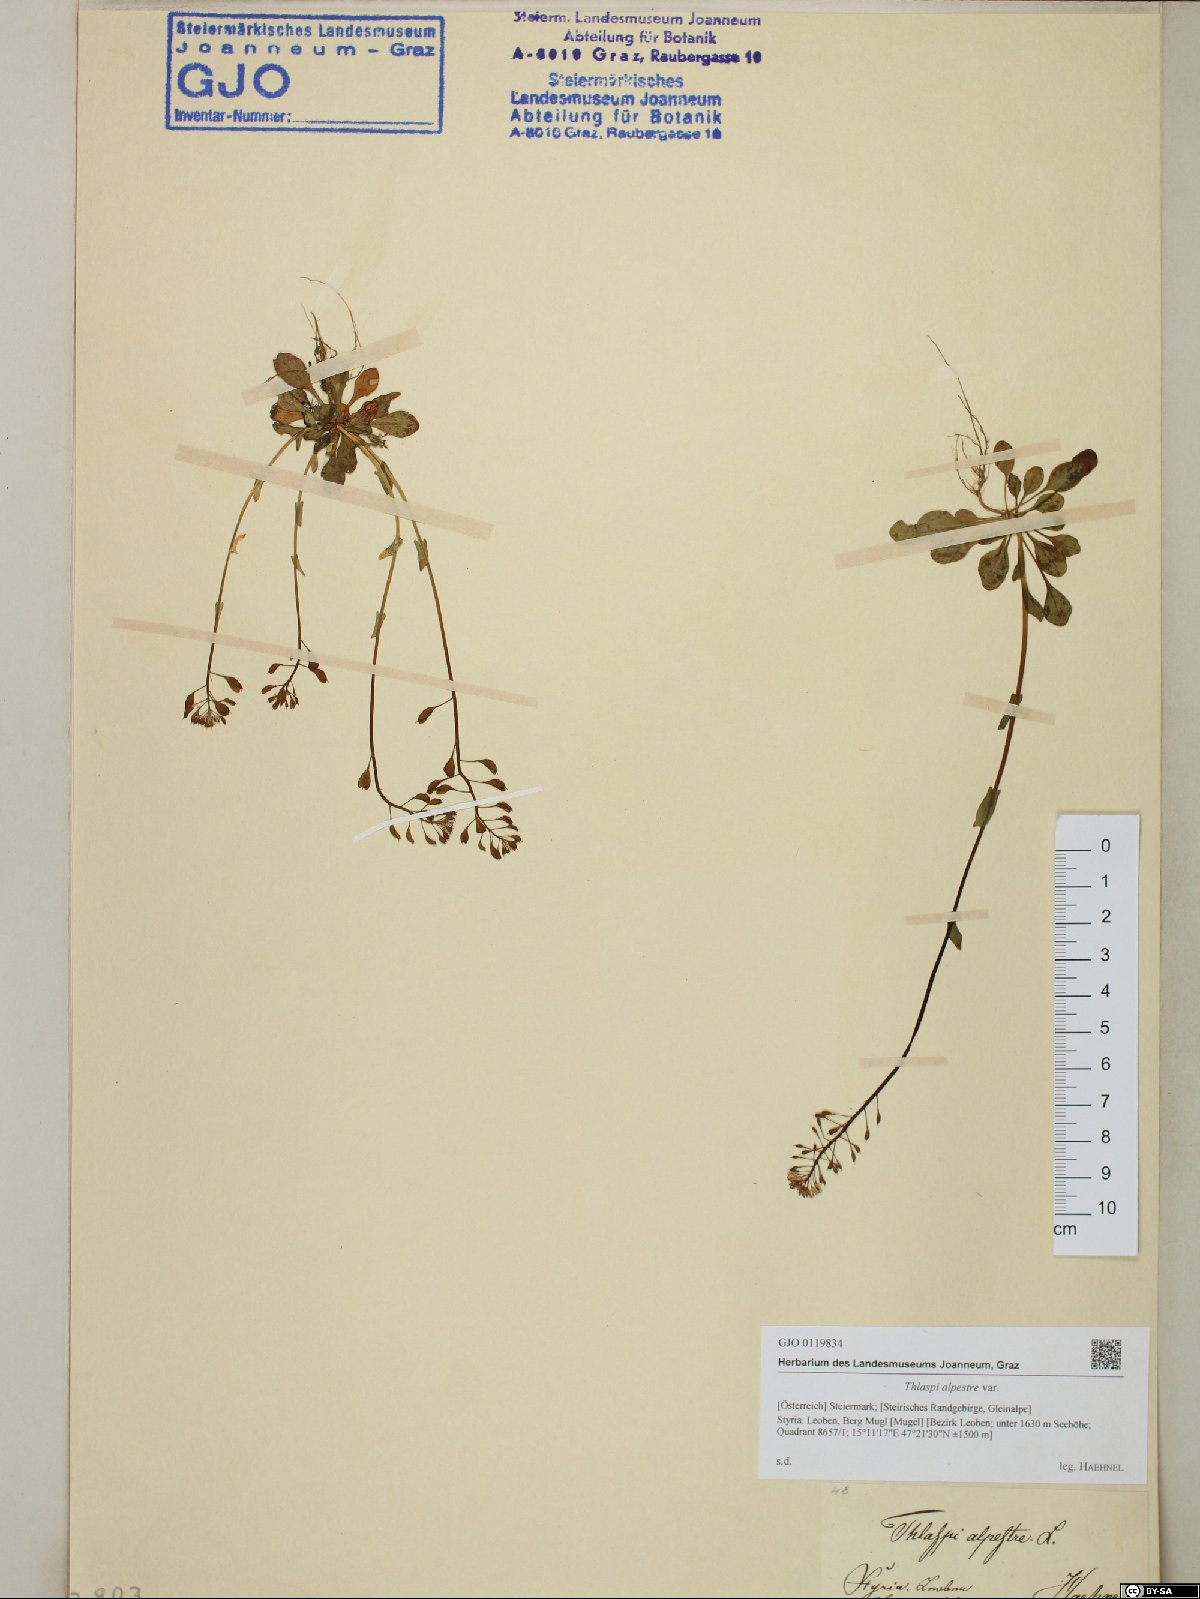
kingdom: Plantae
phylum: Tracheophyta
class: Magnoliopsida
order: Brassicales
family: Brassicaceae
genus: Noccaea
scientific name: Noccaea caerulescens
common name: Alpine pennycress
